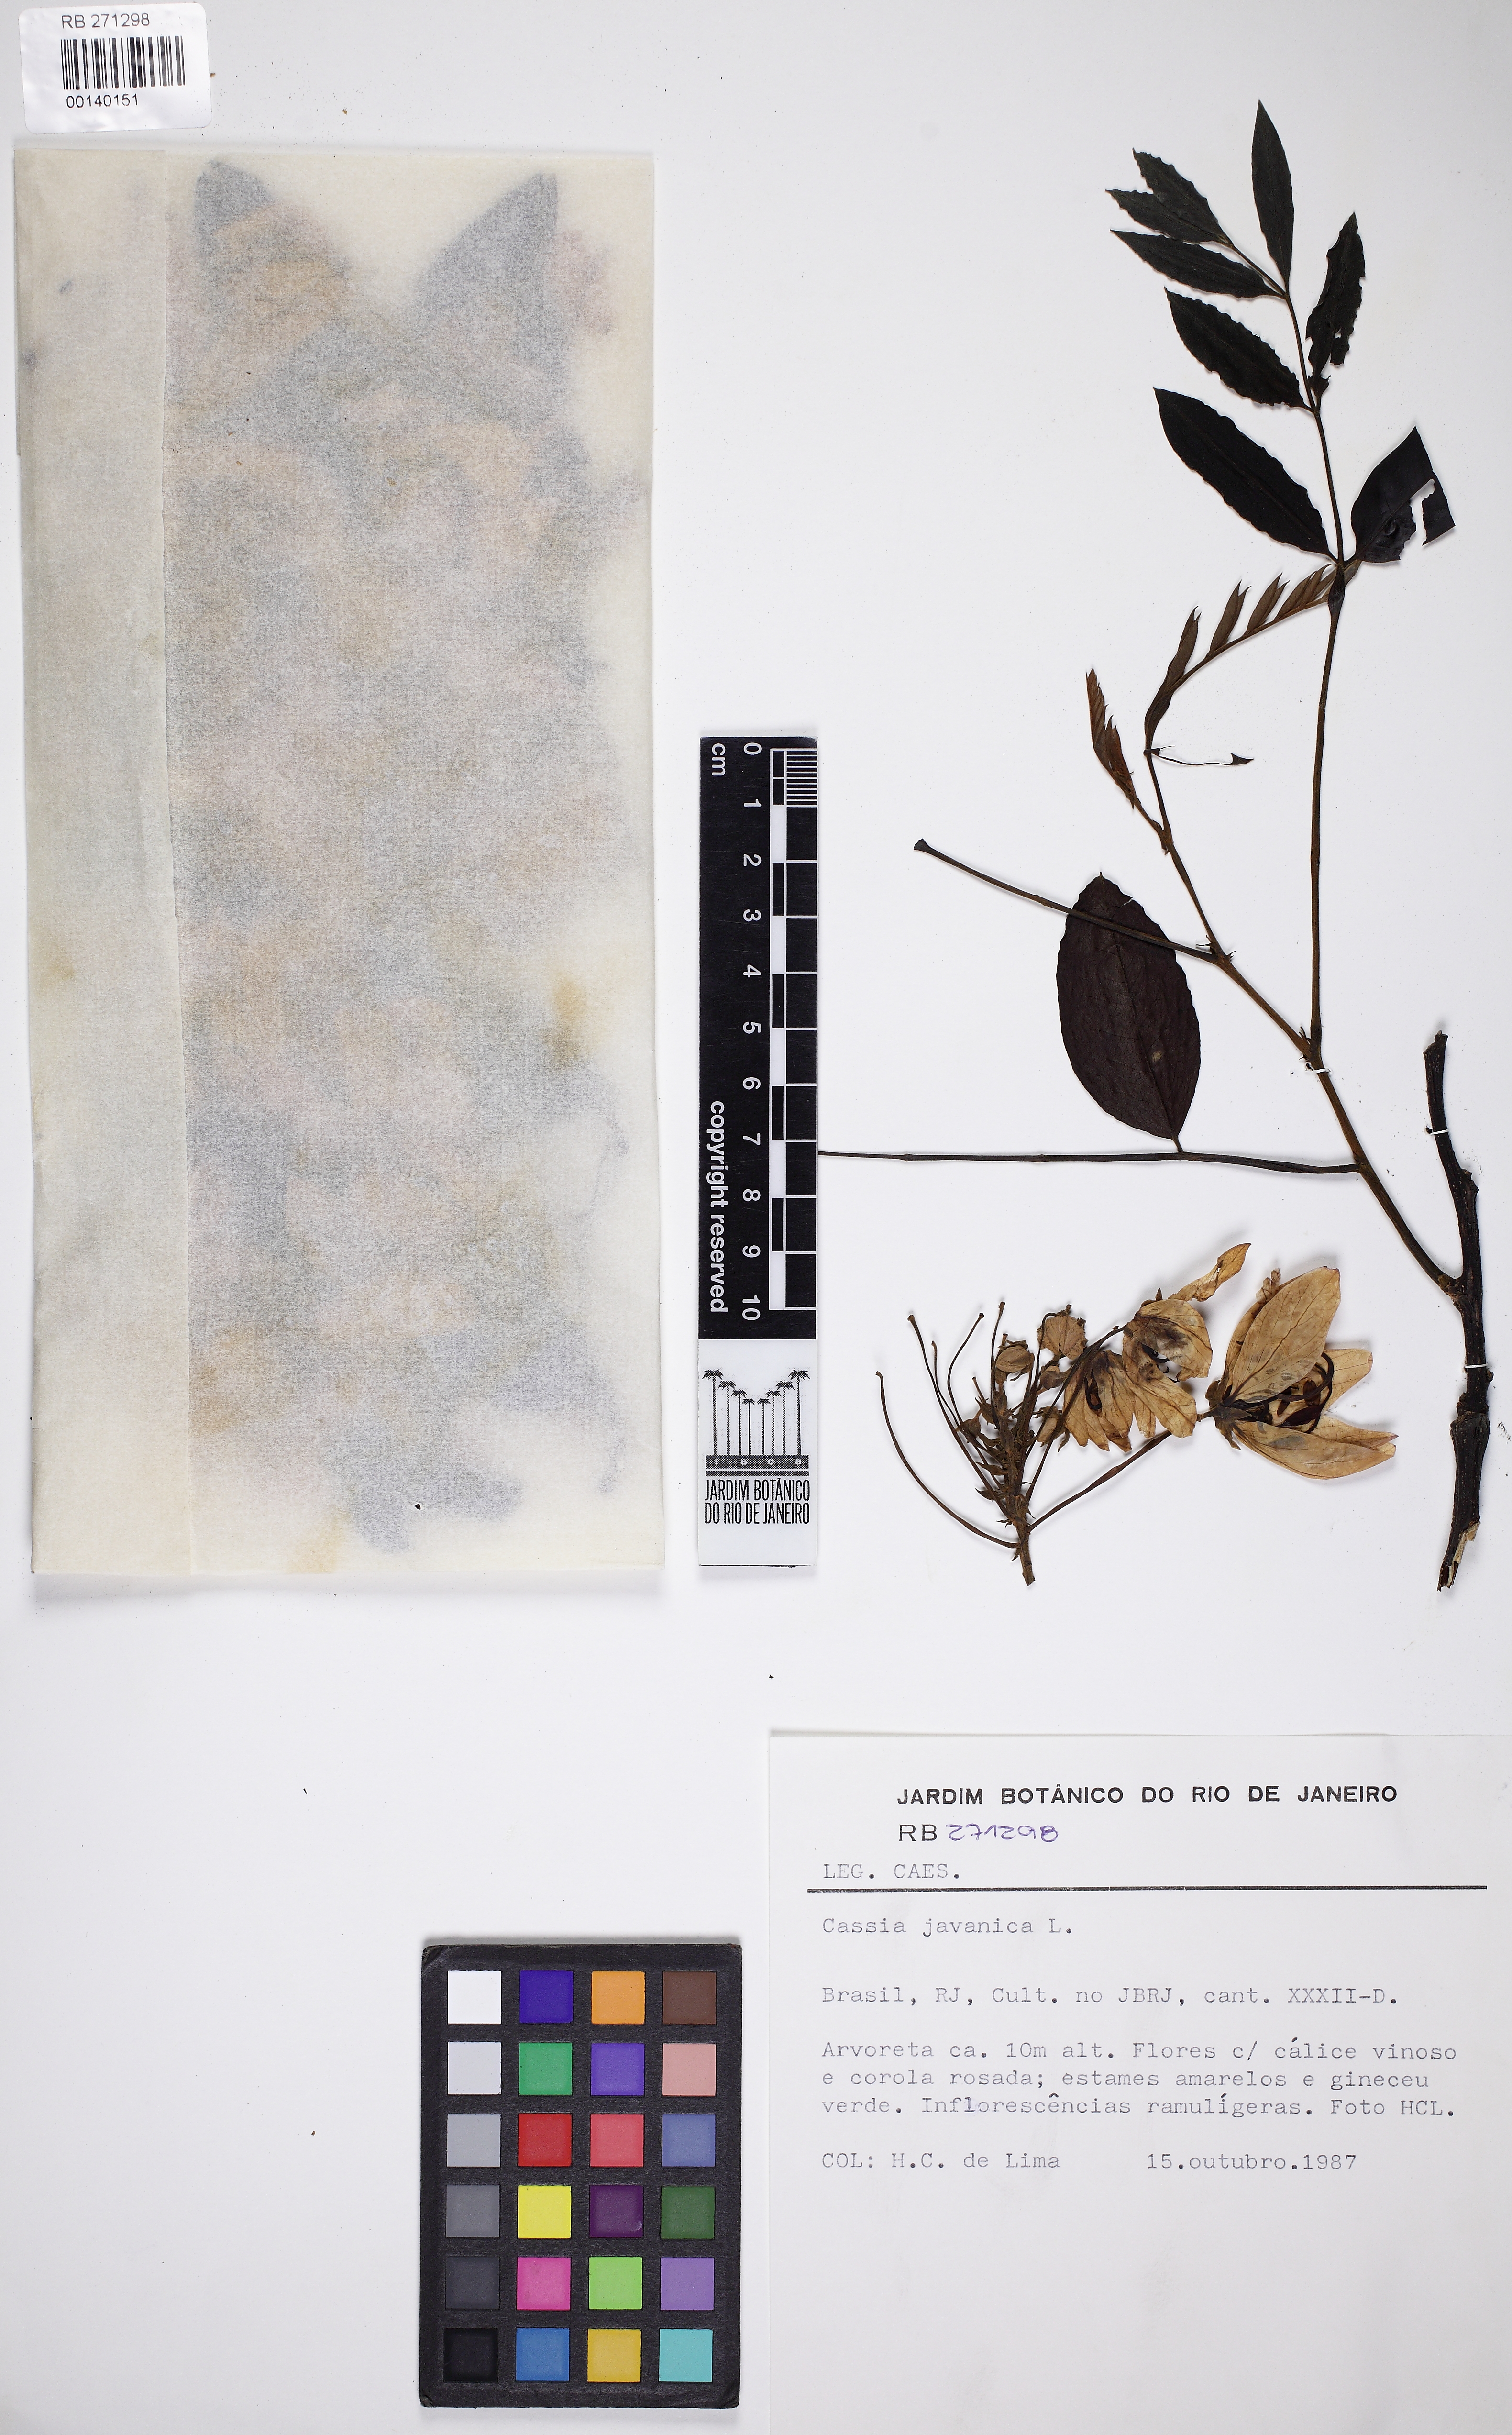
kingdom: Plantae
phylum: Tracheophyta
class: Magnoliopsida
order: Fabales
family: Fabaceae
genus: Cassia
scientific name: Cassia javanica
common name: Apple blossom
